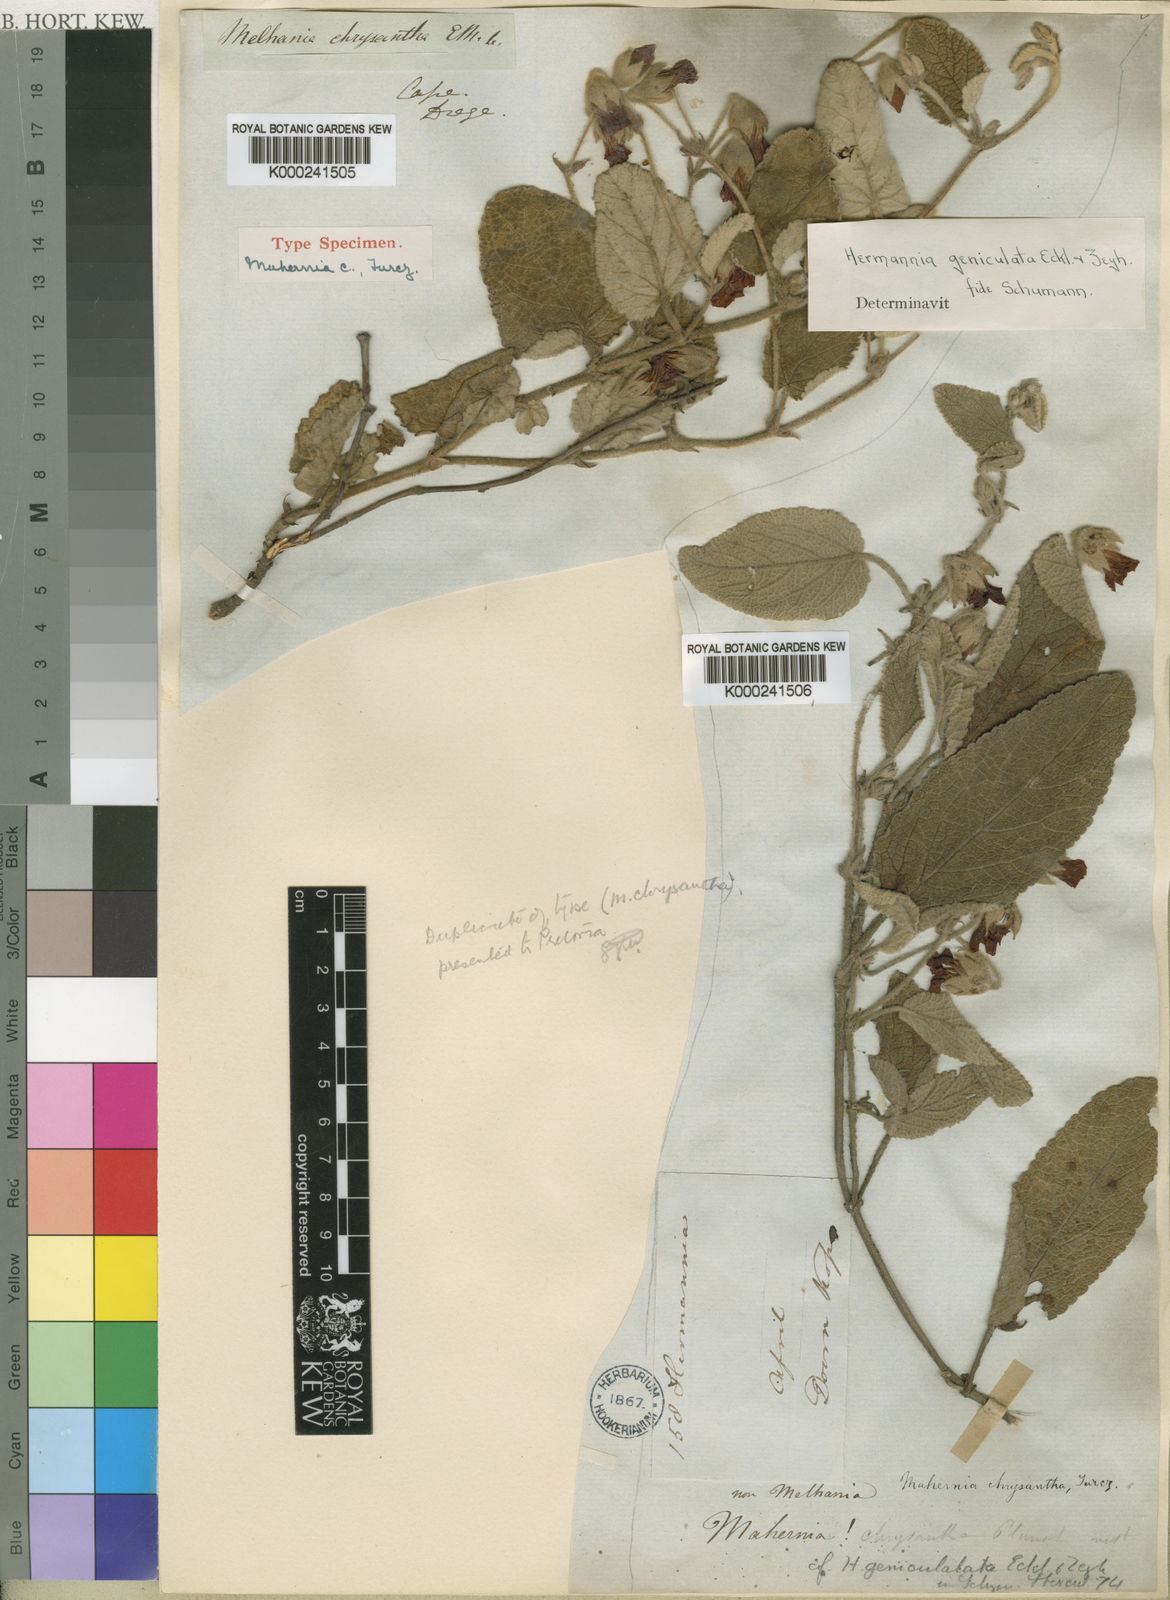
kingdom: Plantae
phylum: Tracheophyta
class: Magnoliopsida
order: Malvales
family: Malvaceae
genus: Hermannia
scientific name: Hermannia geniculata
